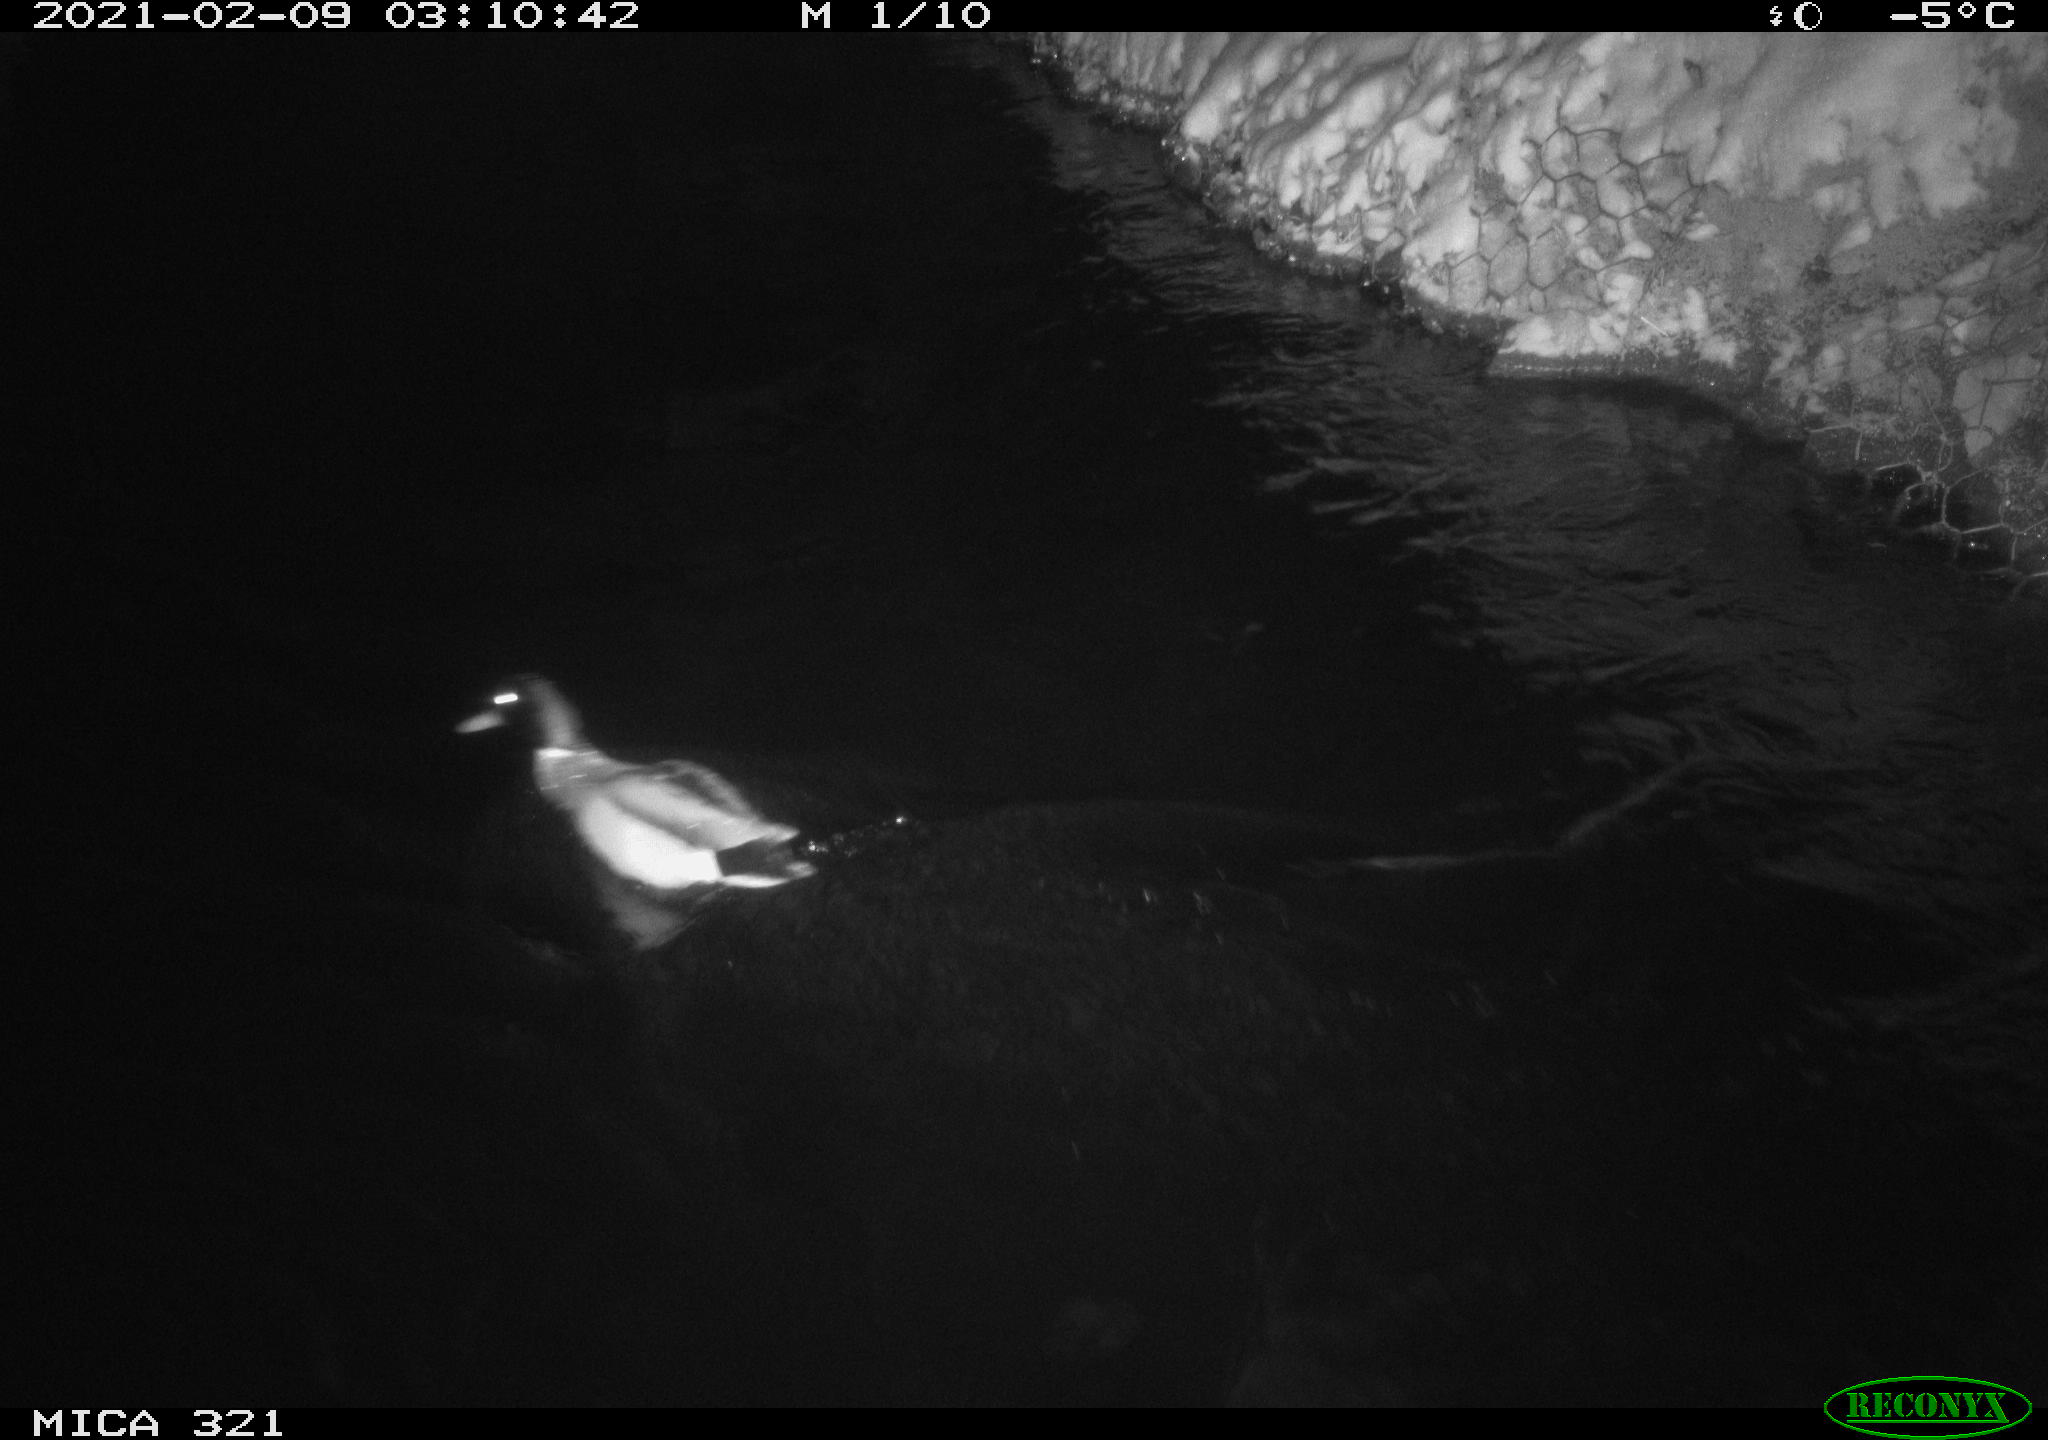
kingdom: Animalia
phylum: Chordata
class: Aves
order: Anseriformes
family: Anatidae
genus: Anas
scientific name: Anas platyrhynchos
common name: Mallard
